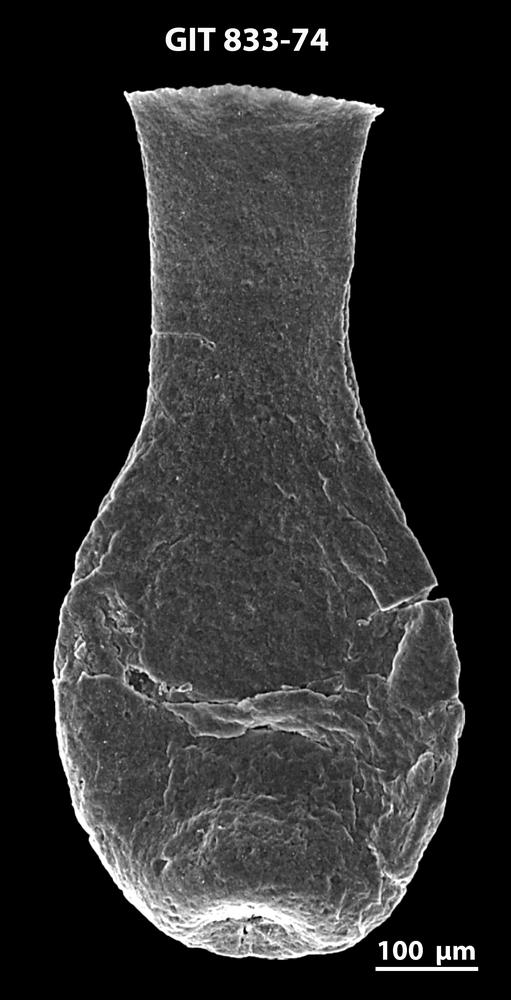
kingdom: Animalia
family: Lagenochitinidae
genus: Lagenochitina
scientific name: Lagenochitina megaesthonica
